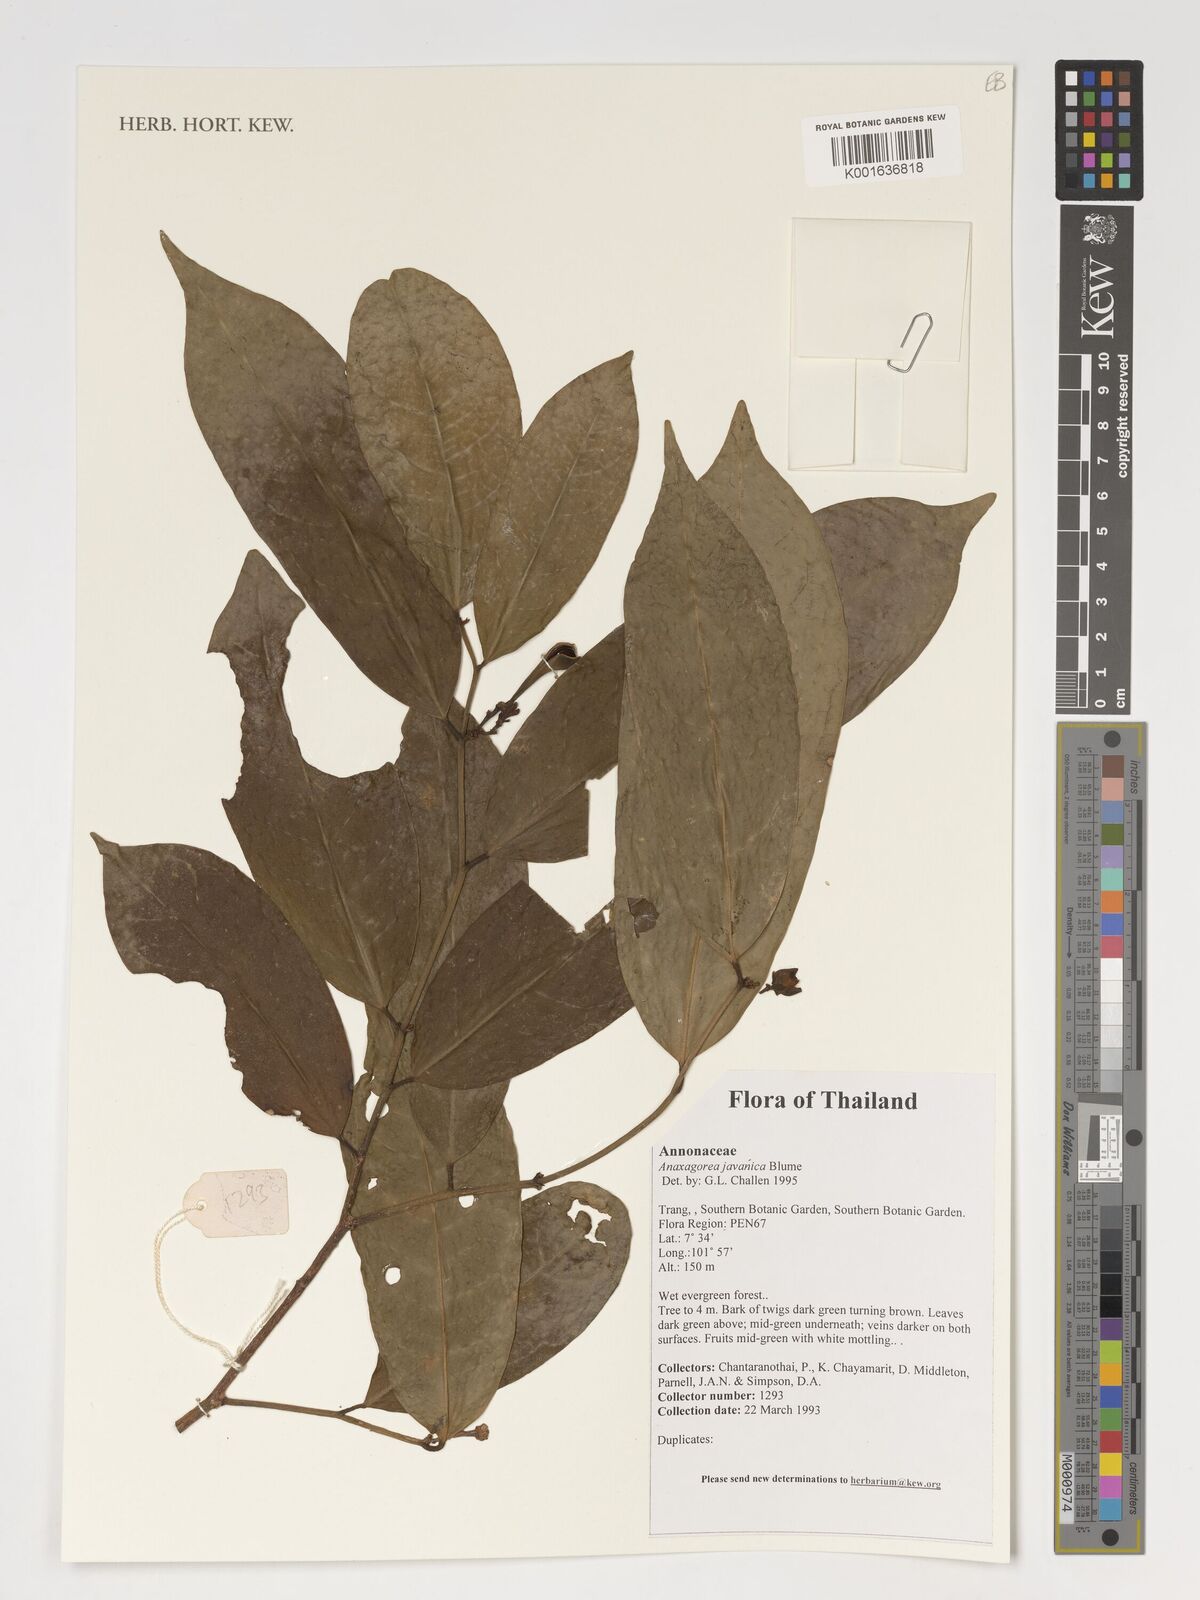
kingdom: Plantae
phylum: Tracheophyta
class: Magnoliopsida
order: Magnoliales
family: Annonaceae
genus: Anaxagorea
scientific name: Anaxagorea javanica
